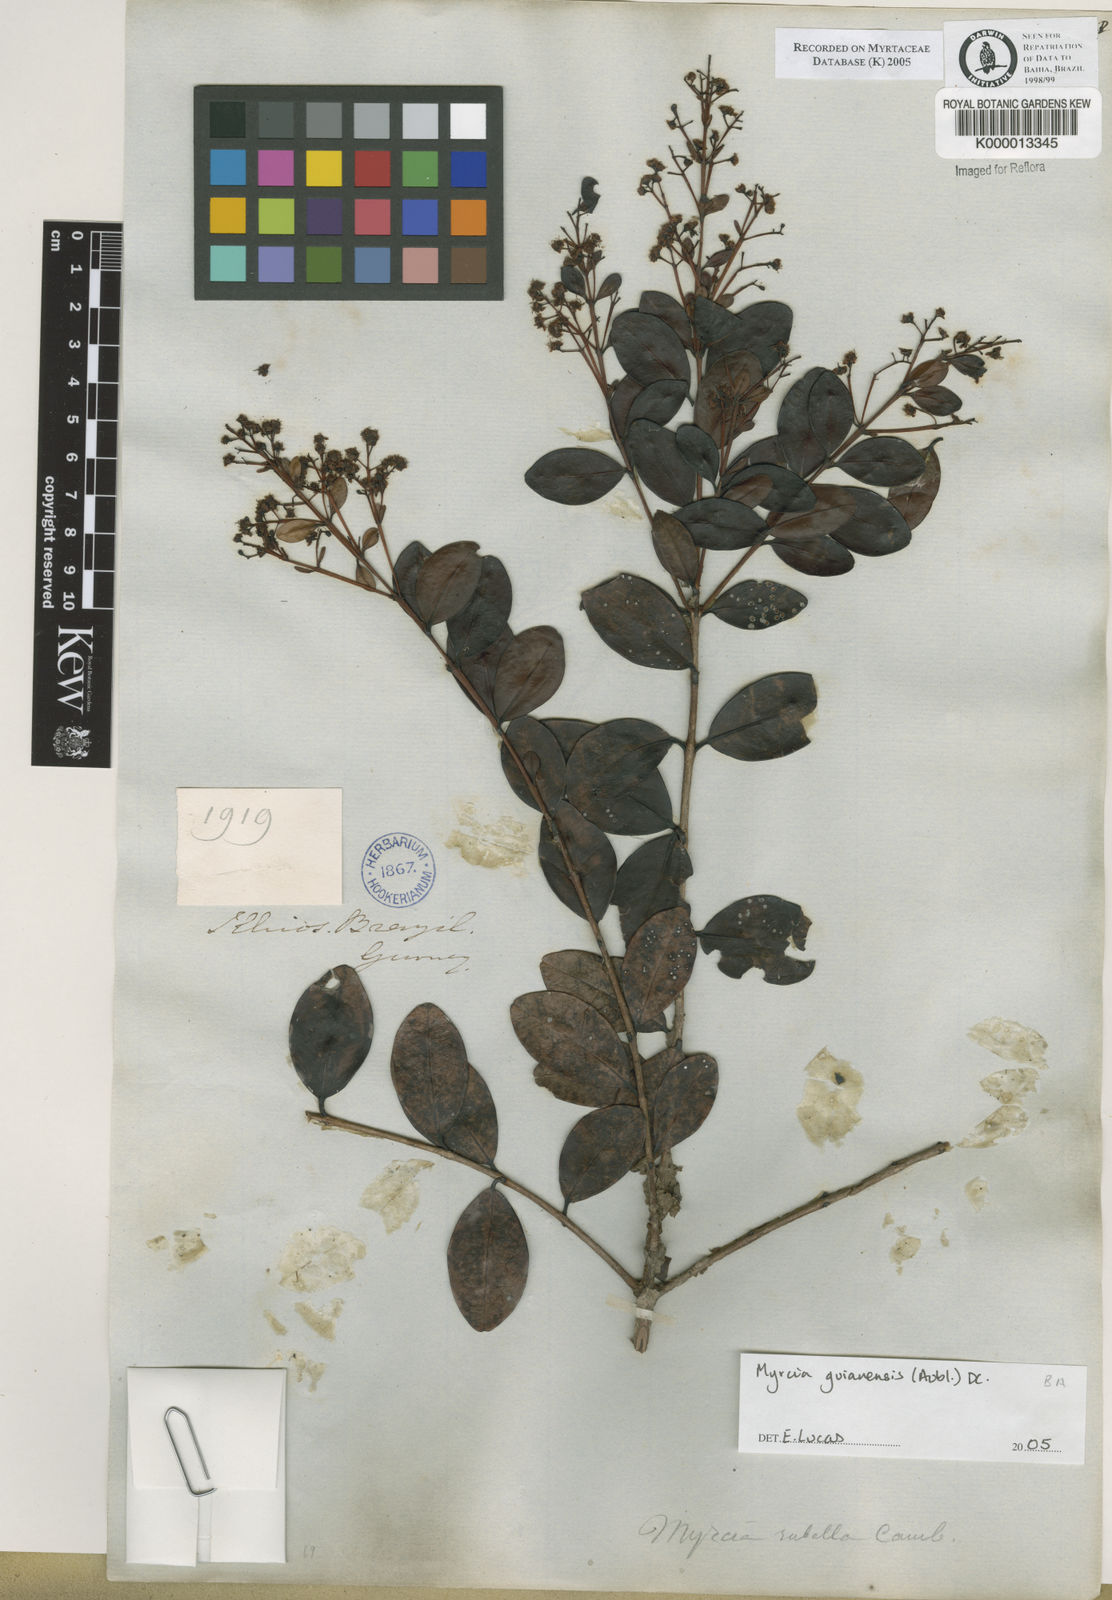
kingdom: Plantae
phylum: Tracheophyta
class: Magnoliopsida
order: Myrtales
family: Myrtaceae
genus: Myrcia
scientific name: Myrcia rubella
